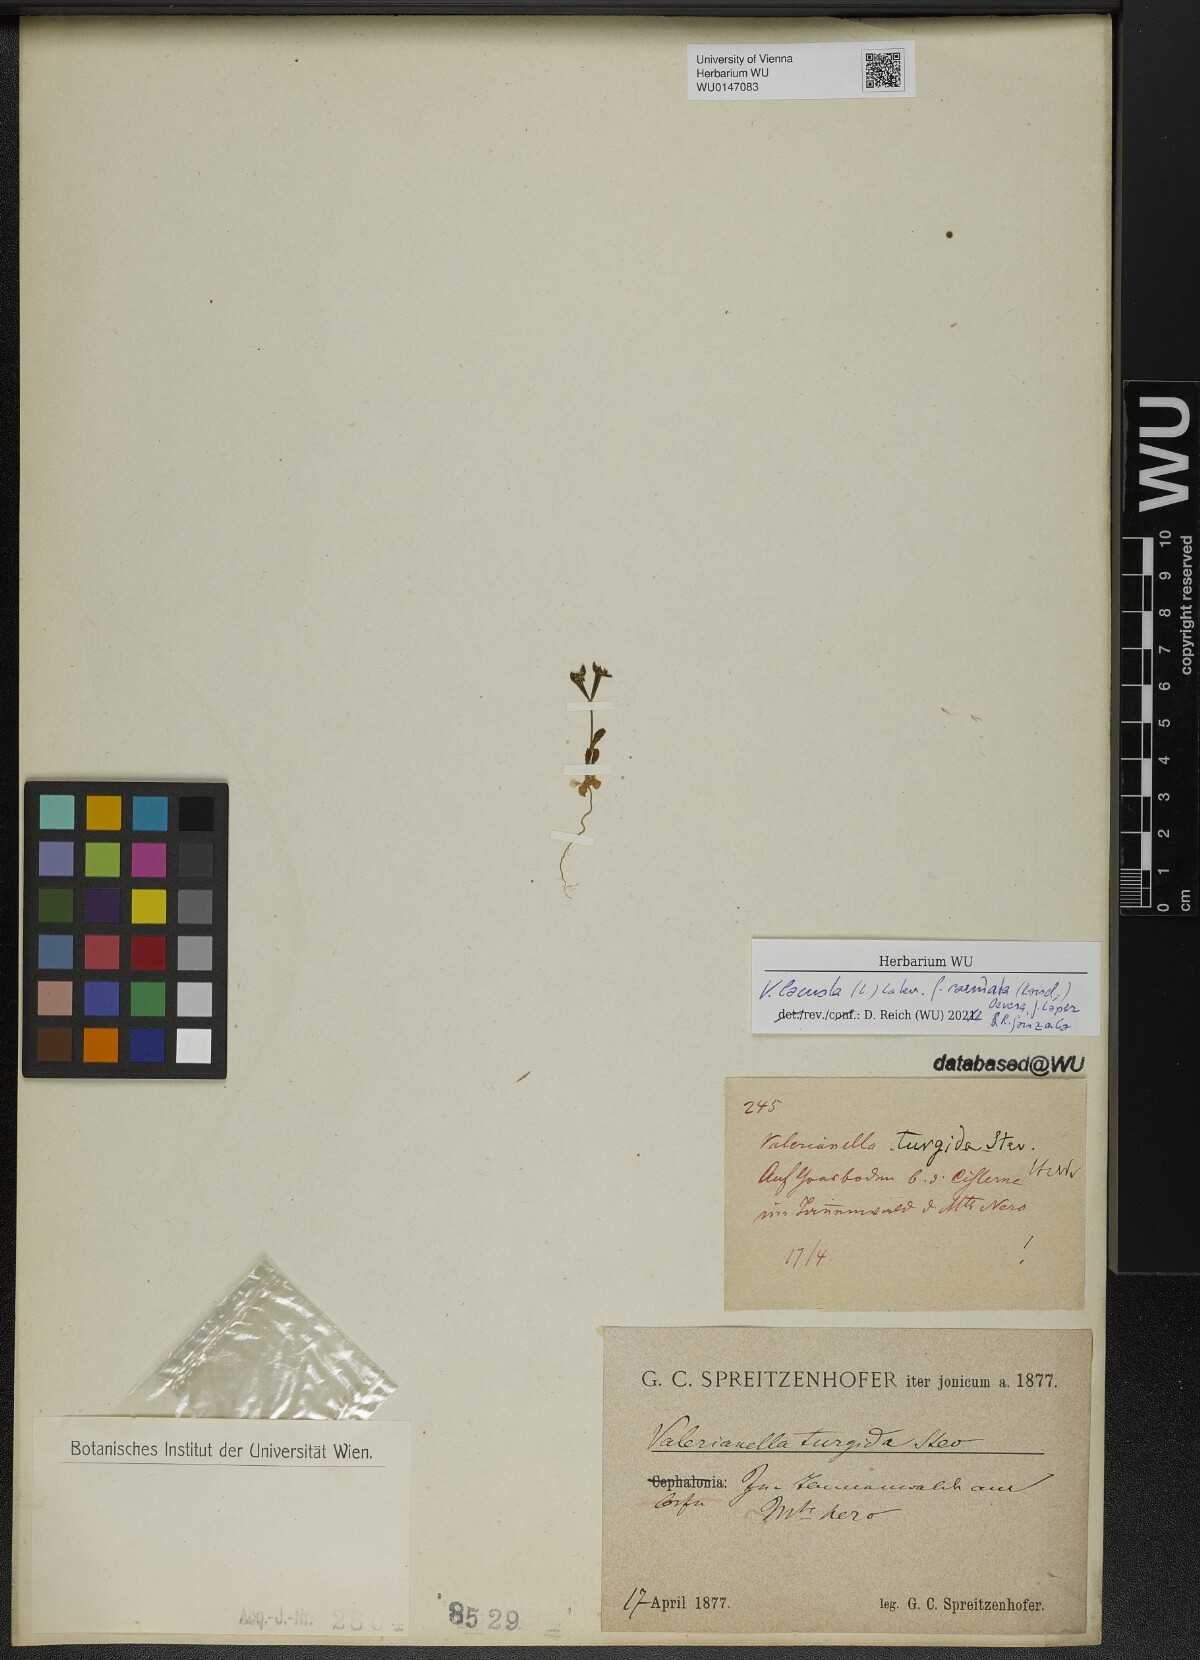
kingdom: Plantae
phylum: Tracheophyta
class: Magnoliopsida
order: Dipsacales
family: Caprifoliaceae
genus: Valerianella
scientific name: Valerianella carinata
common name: Keeled-fruited cornsalad
